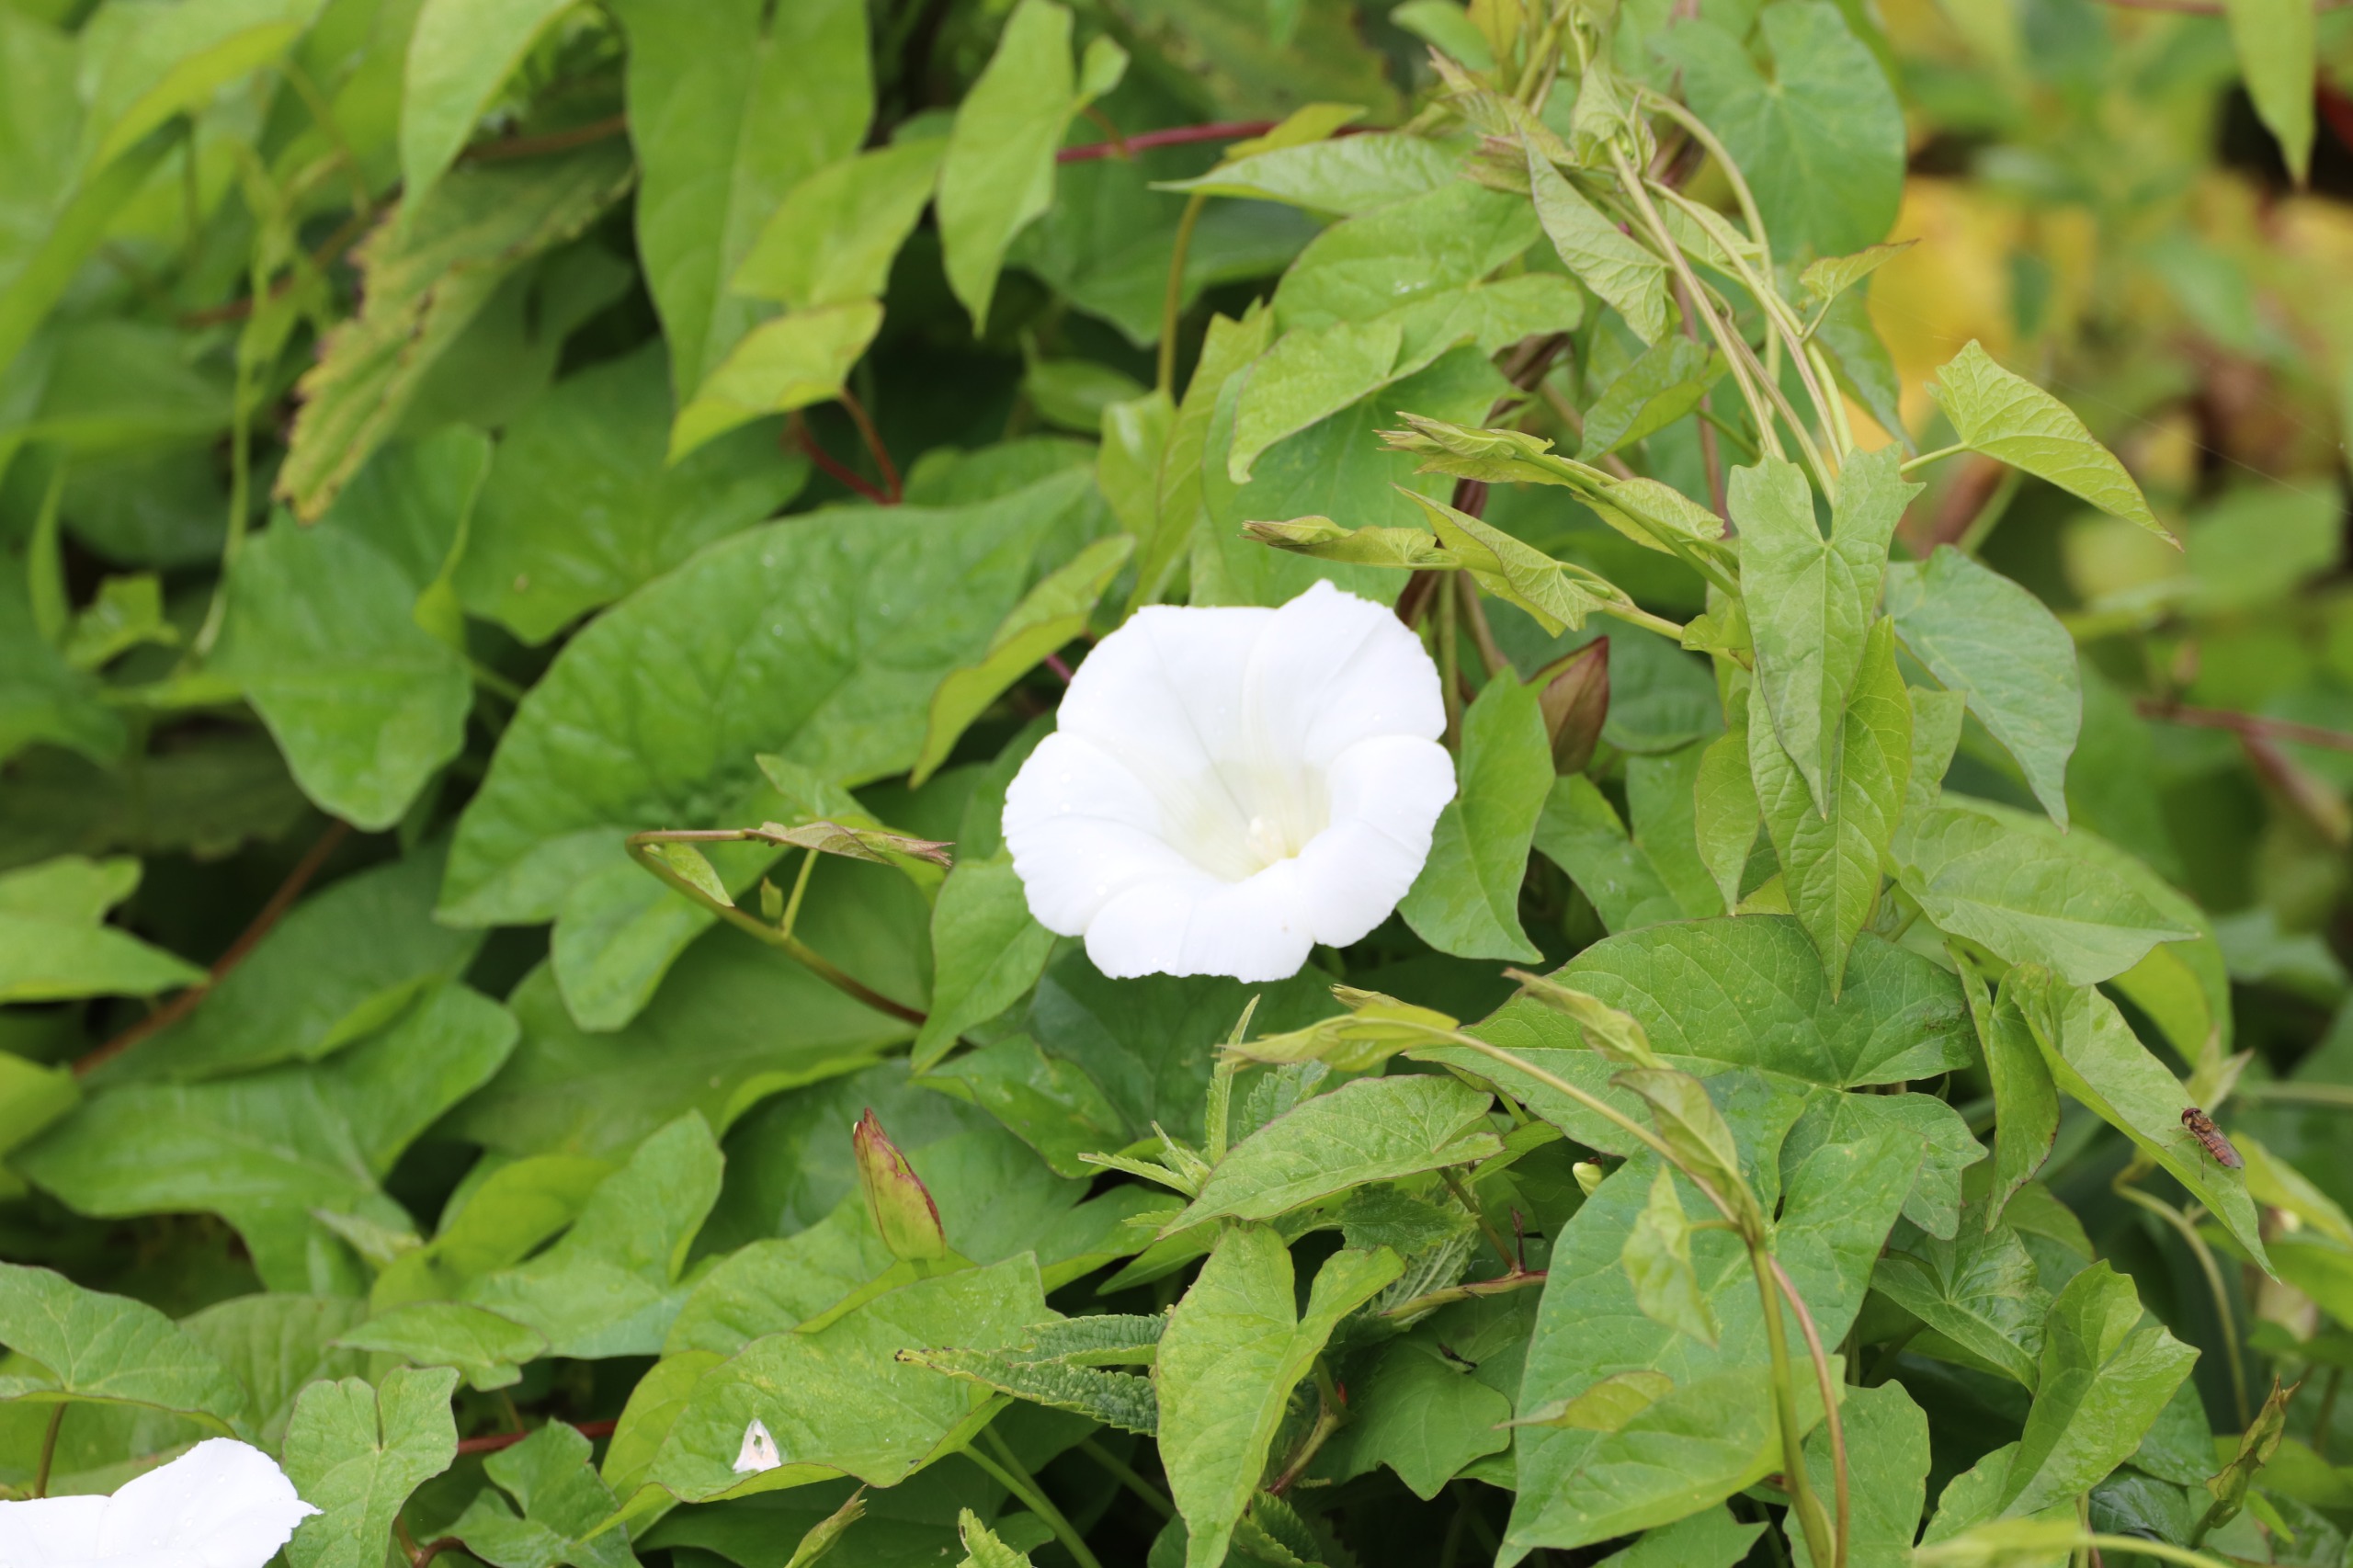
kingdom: Plantae
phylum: Tracheophyta
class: Magnoliopsida
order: Solanales
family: Convolvulaceae
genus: Calystegia
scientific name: Calystegia sepium
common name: Gærde-snerle
